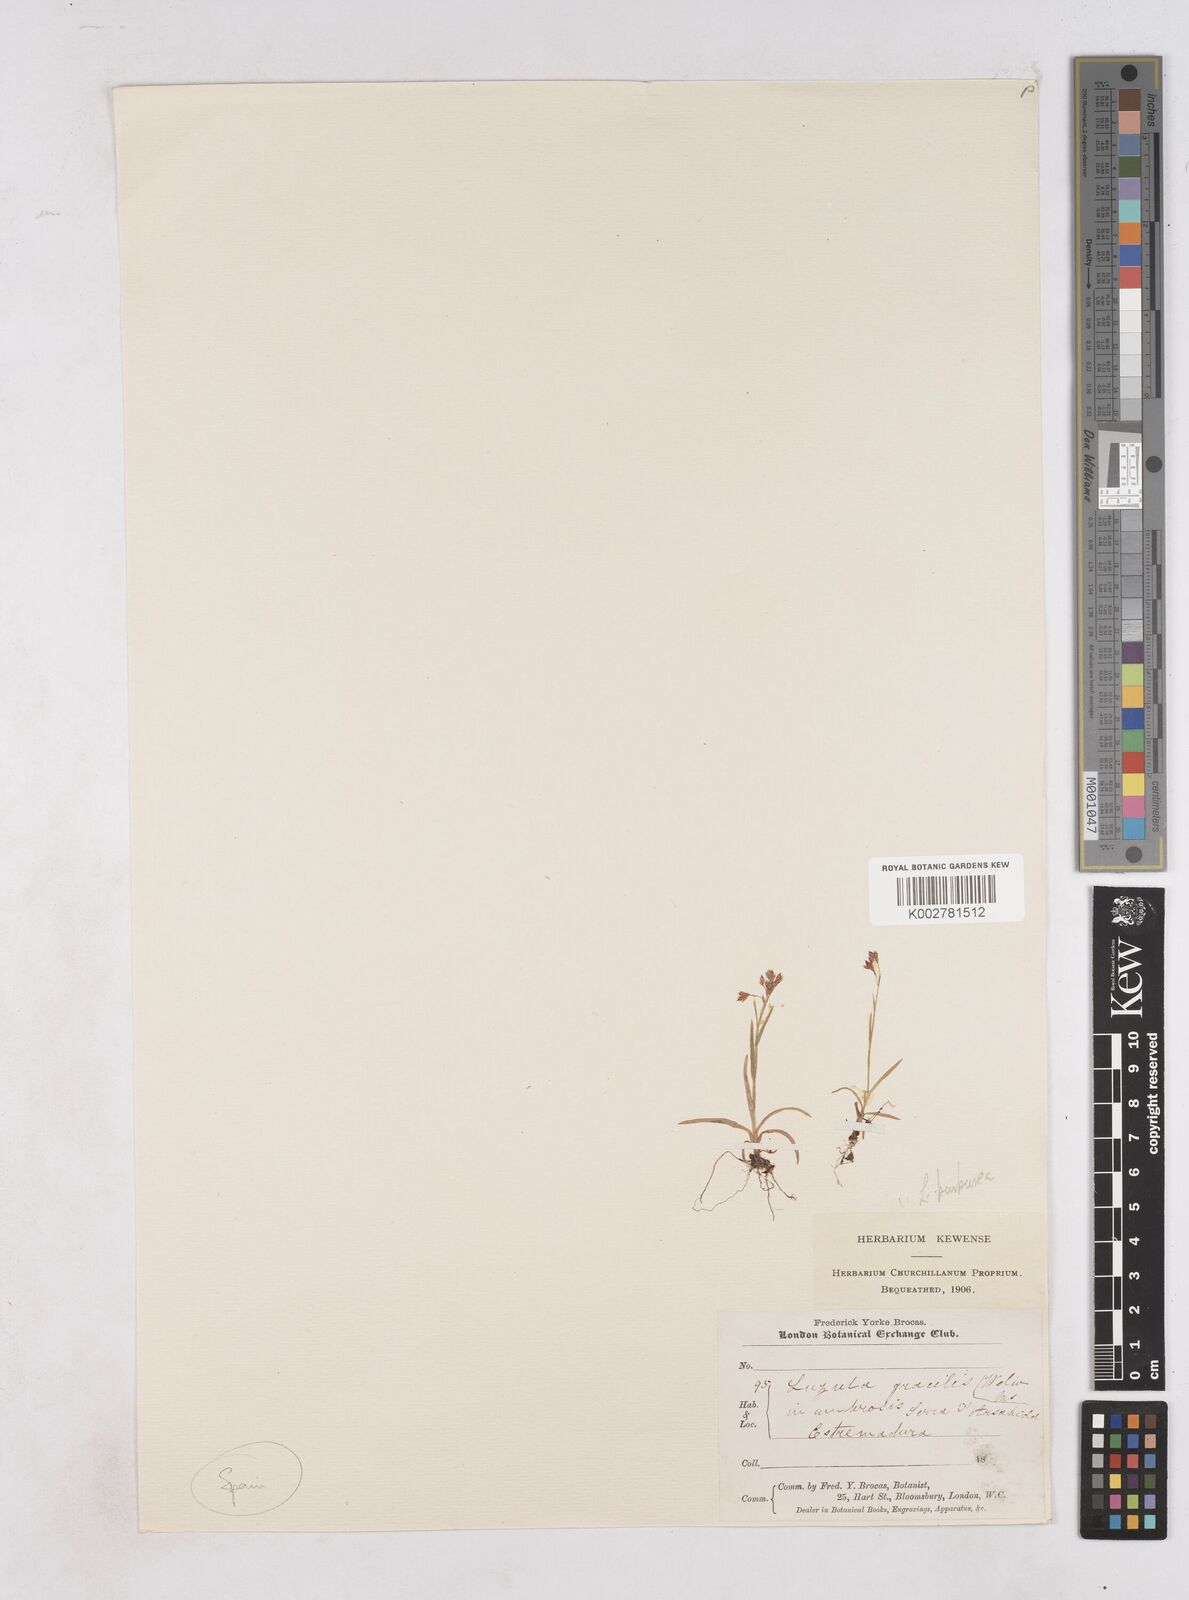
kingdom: Plantae
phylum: Tracheophyta
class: Liliopsida
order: Poales
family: Juncaceae
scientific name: Juncaceae
